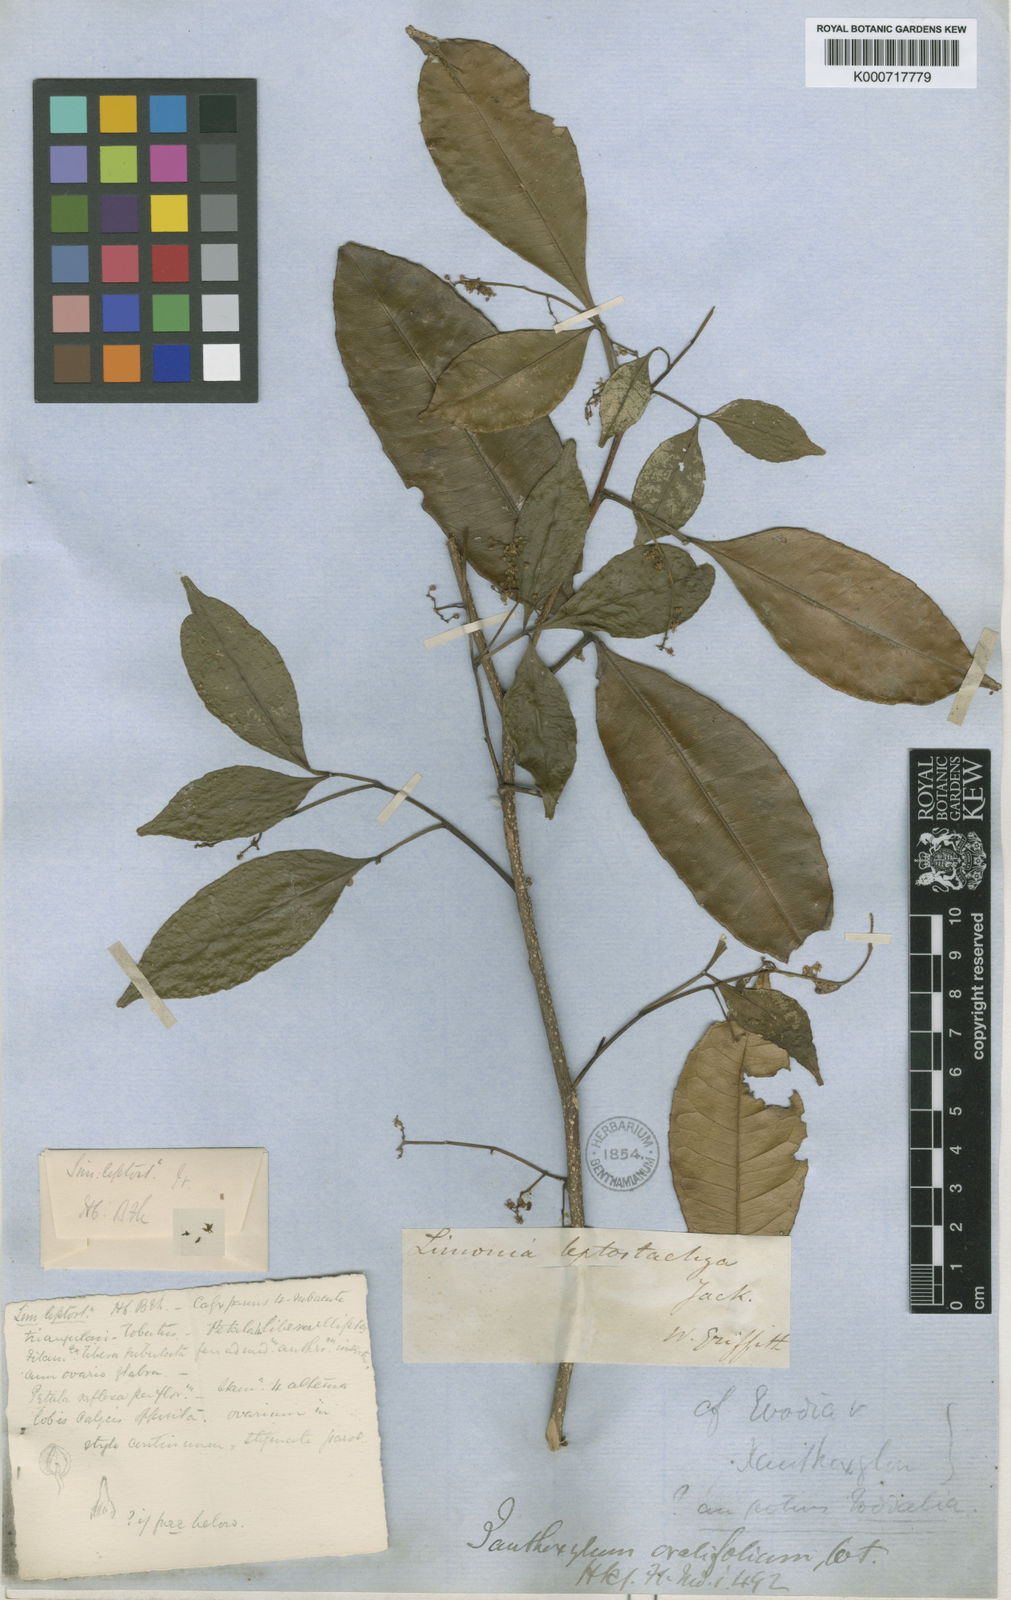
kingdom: Plantae
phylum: Tracheophyta
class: Magnoliopsida
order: Sapindales
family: Rutaceae
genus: Zanthoxylum
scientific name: Zanthoxylum ovalifolium
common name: Thorny yellowwood
